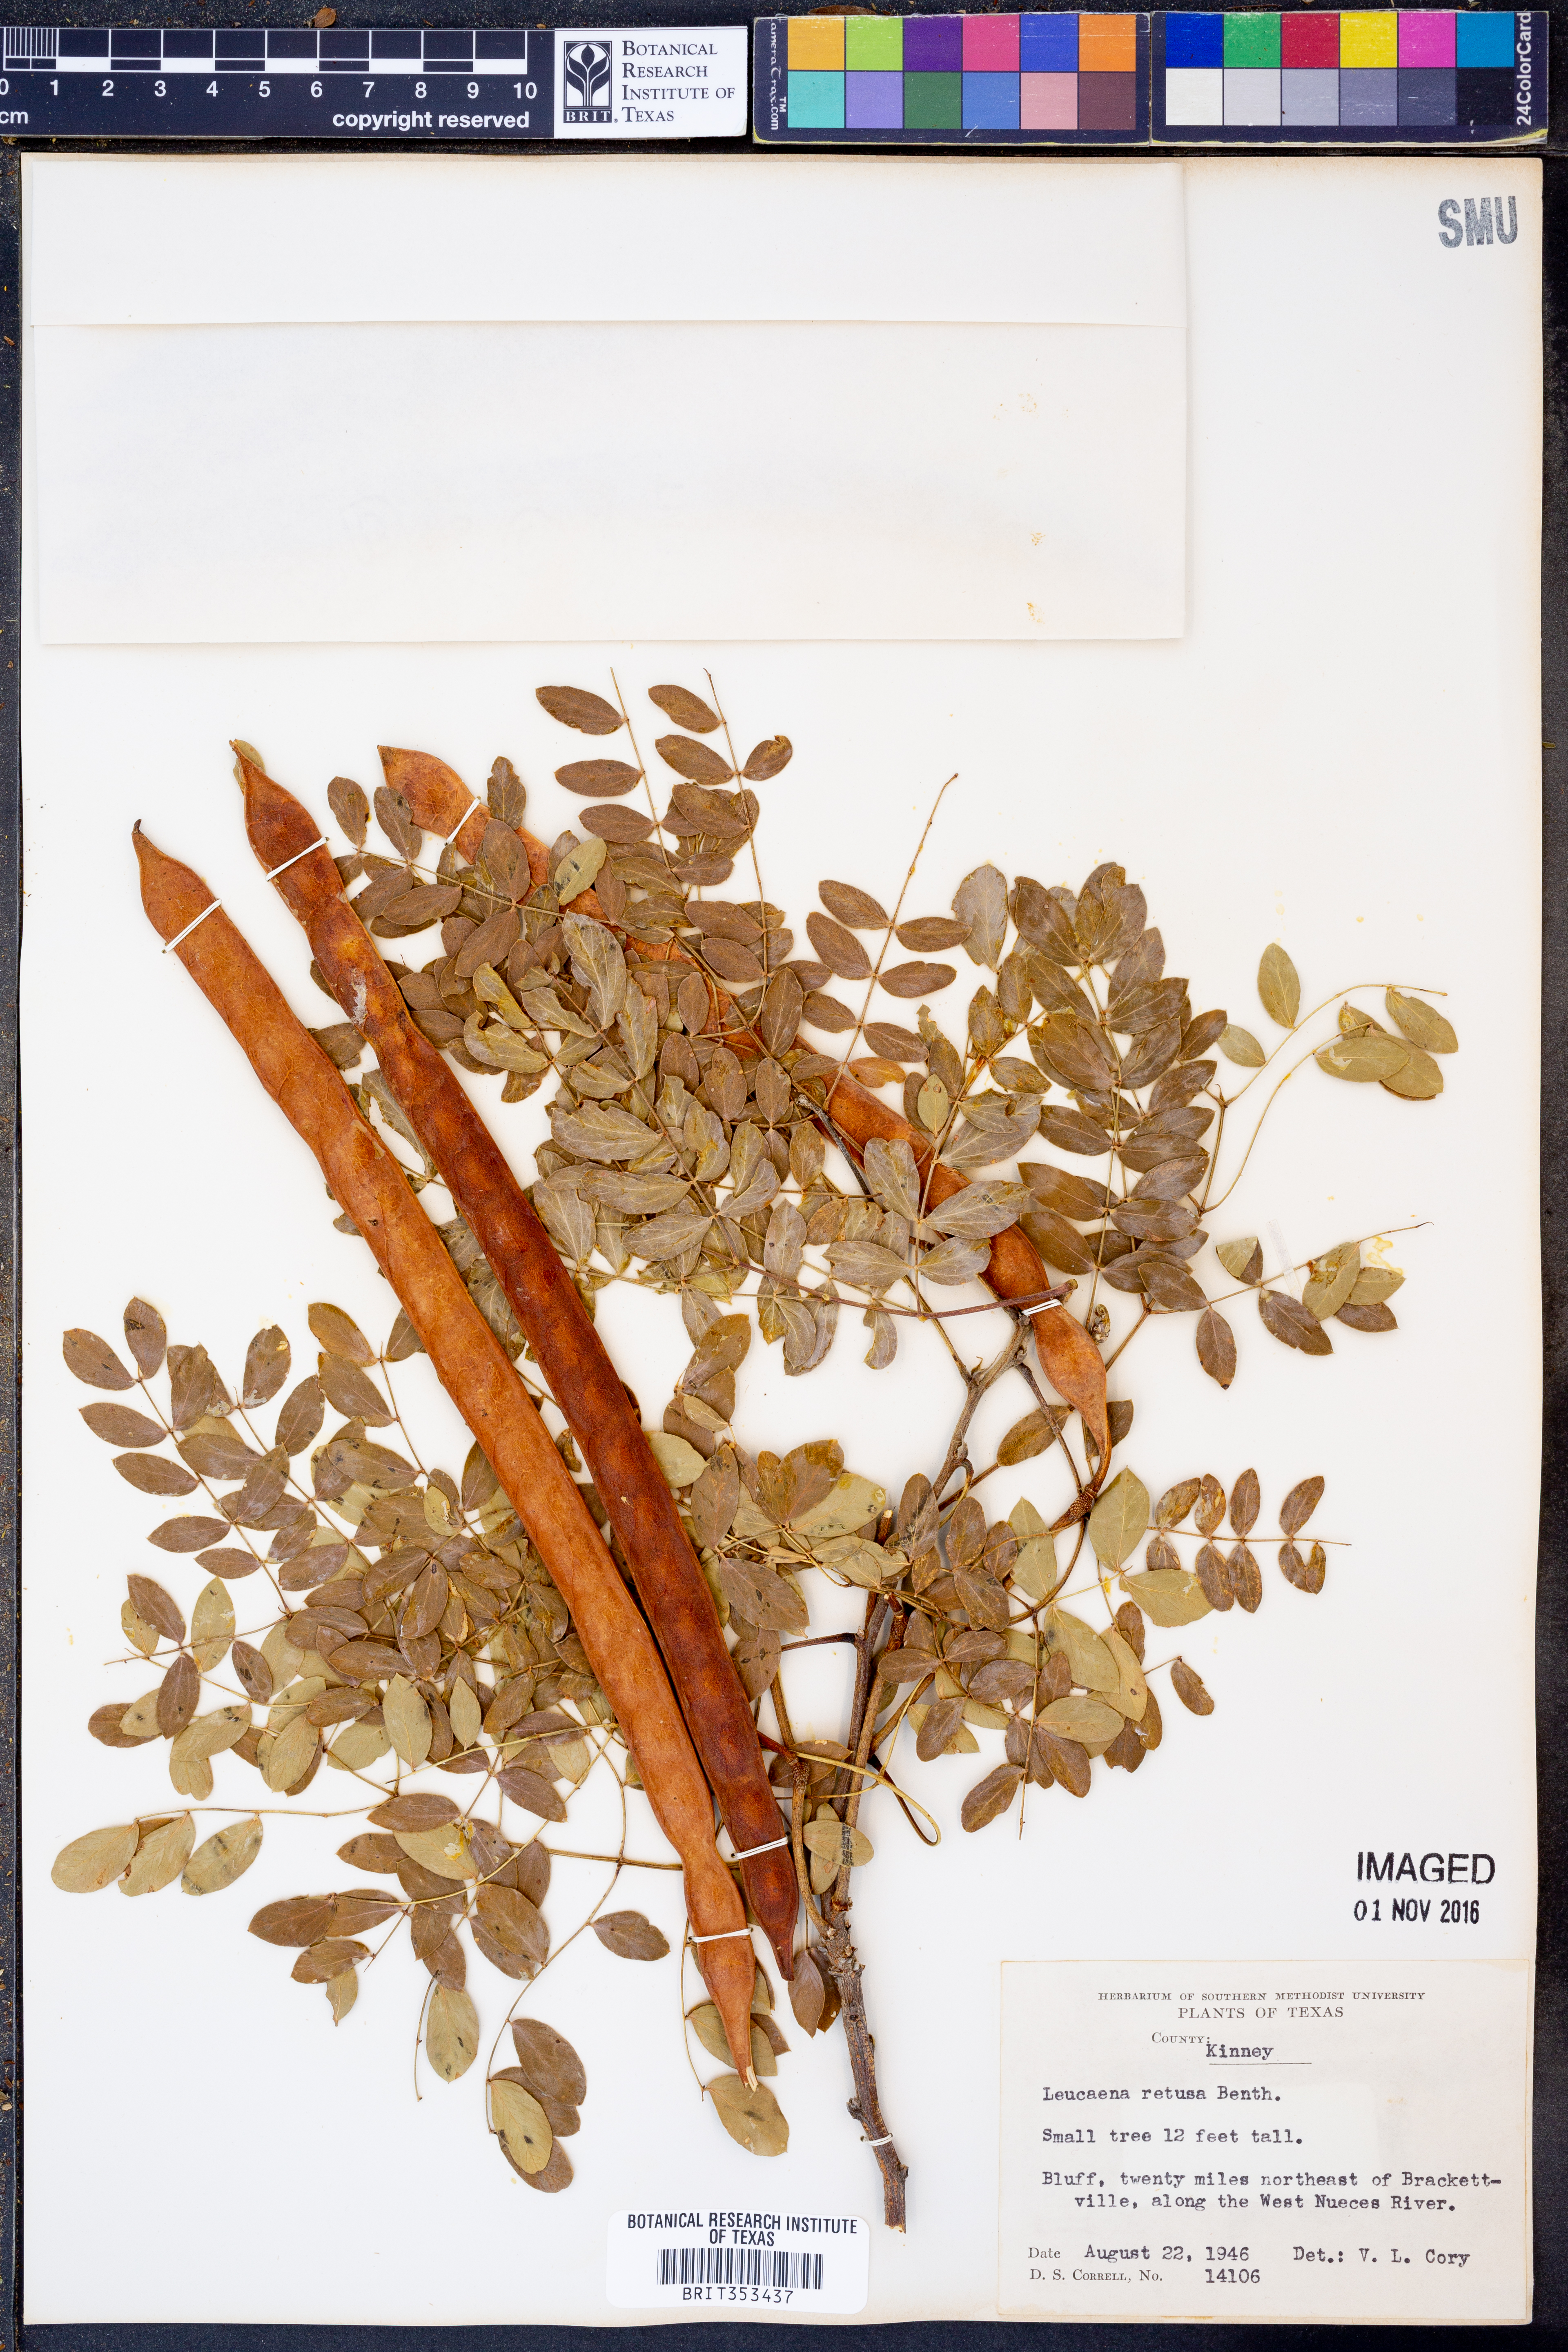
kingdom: Plantae
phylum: Tracheophyta
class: Magnoliopsida
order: Fabales
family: Fabaceae
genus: Leucaena
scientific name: Leucaena retusa
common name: Littleleaf leadtree
